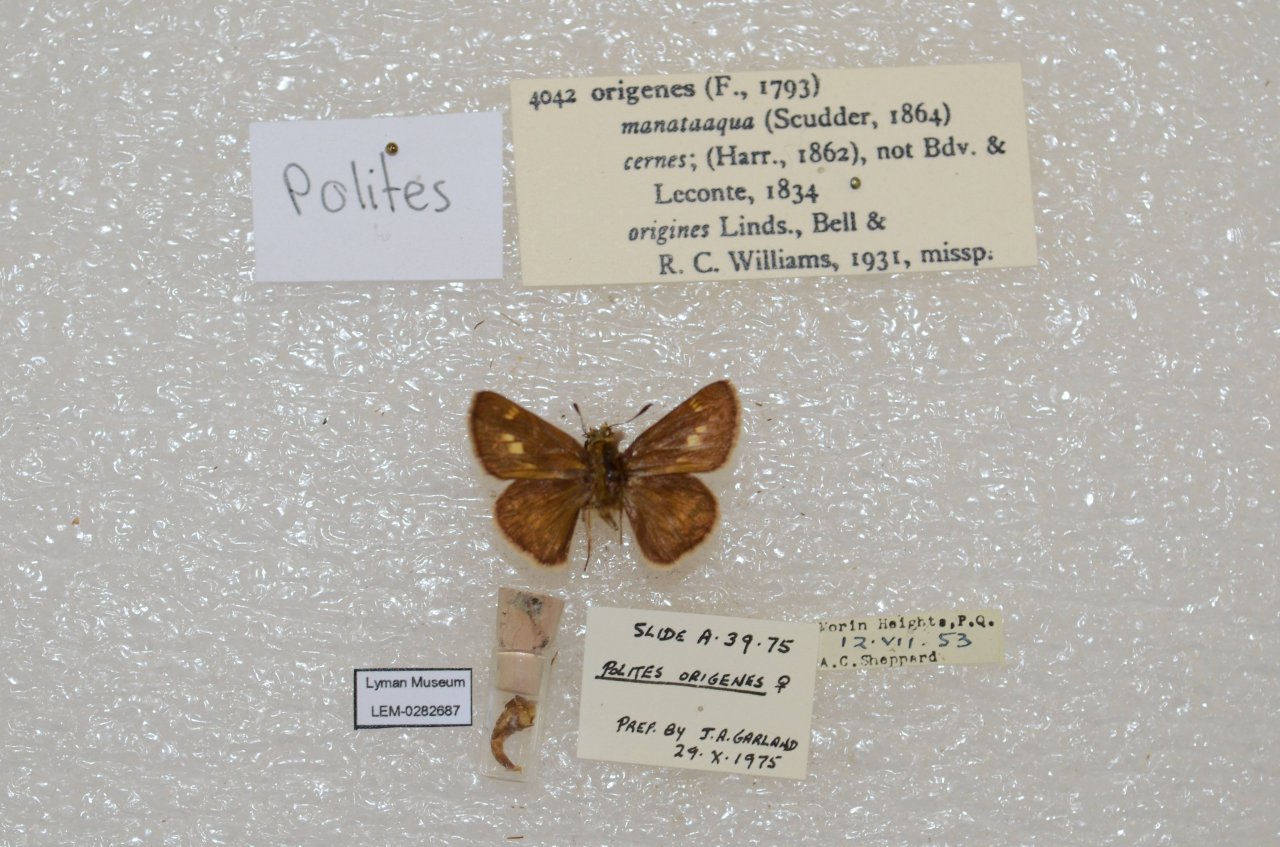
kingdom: Animalia
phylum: Arthropoda
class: Insecta
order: Lepidoptera
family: Hesperiidae
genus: Polites
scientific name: Polites
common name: Crossline Skipper
